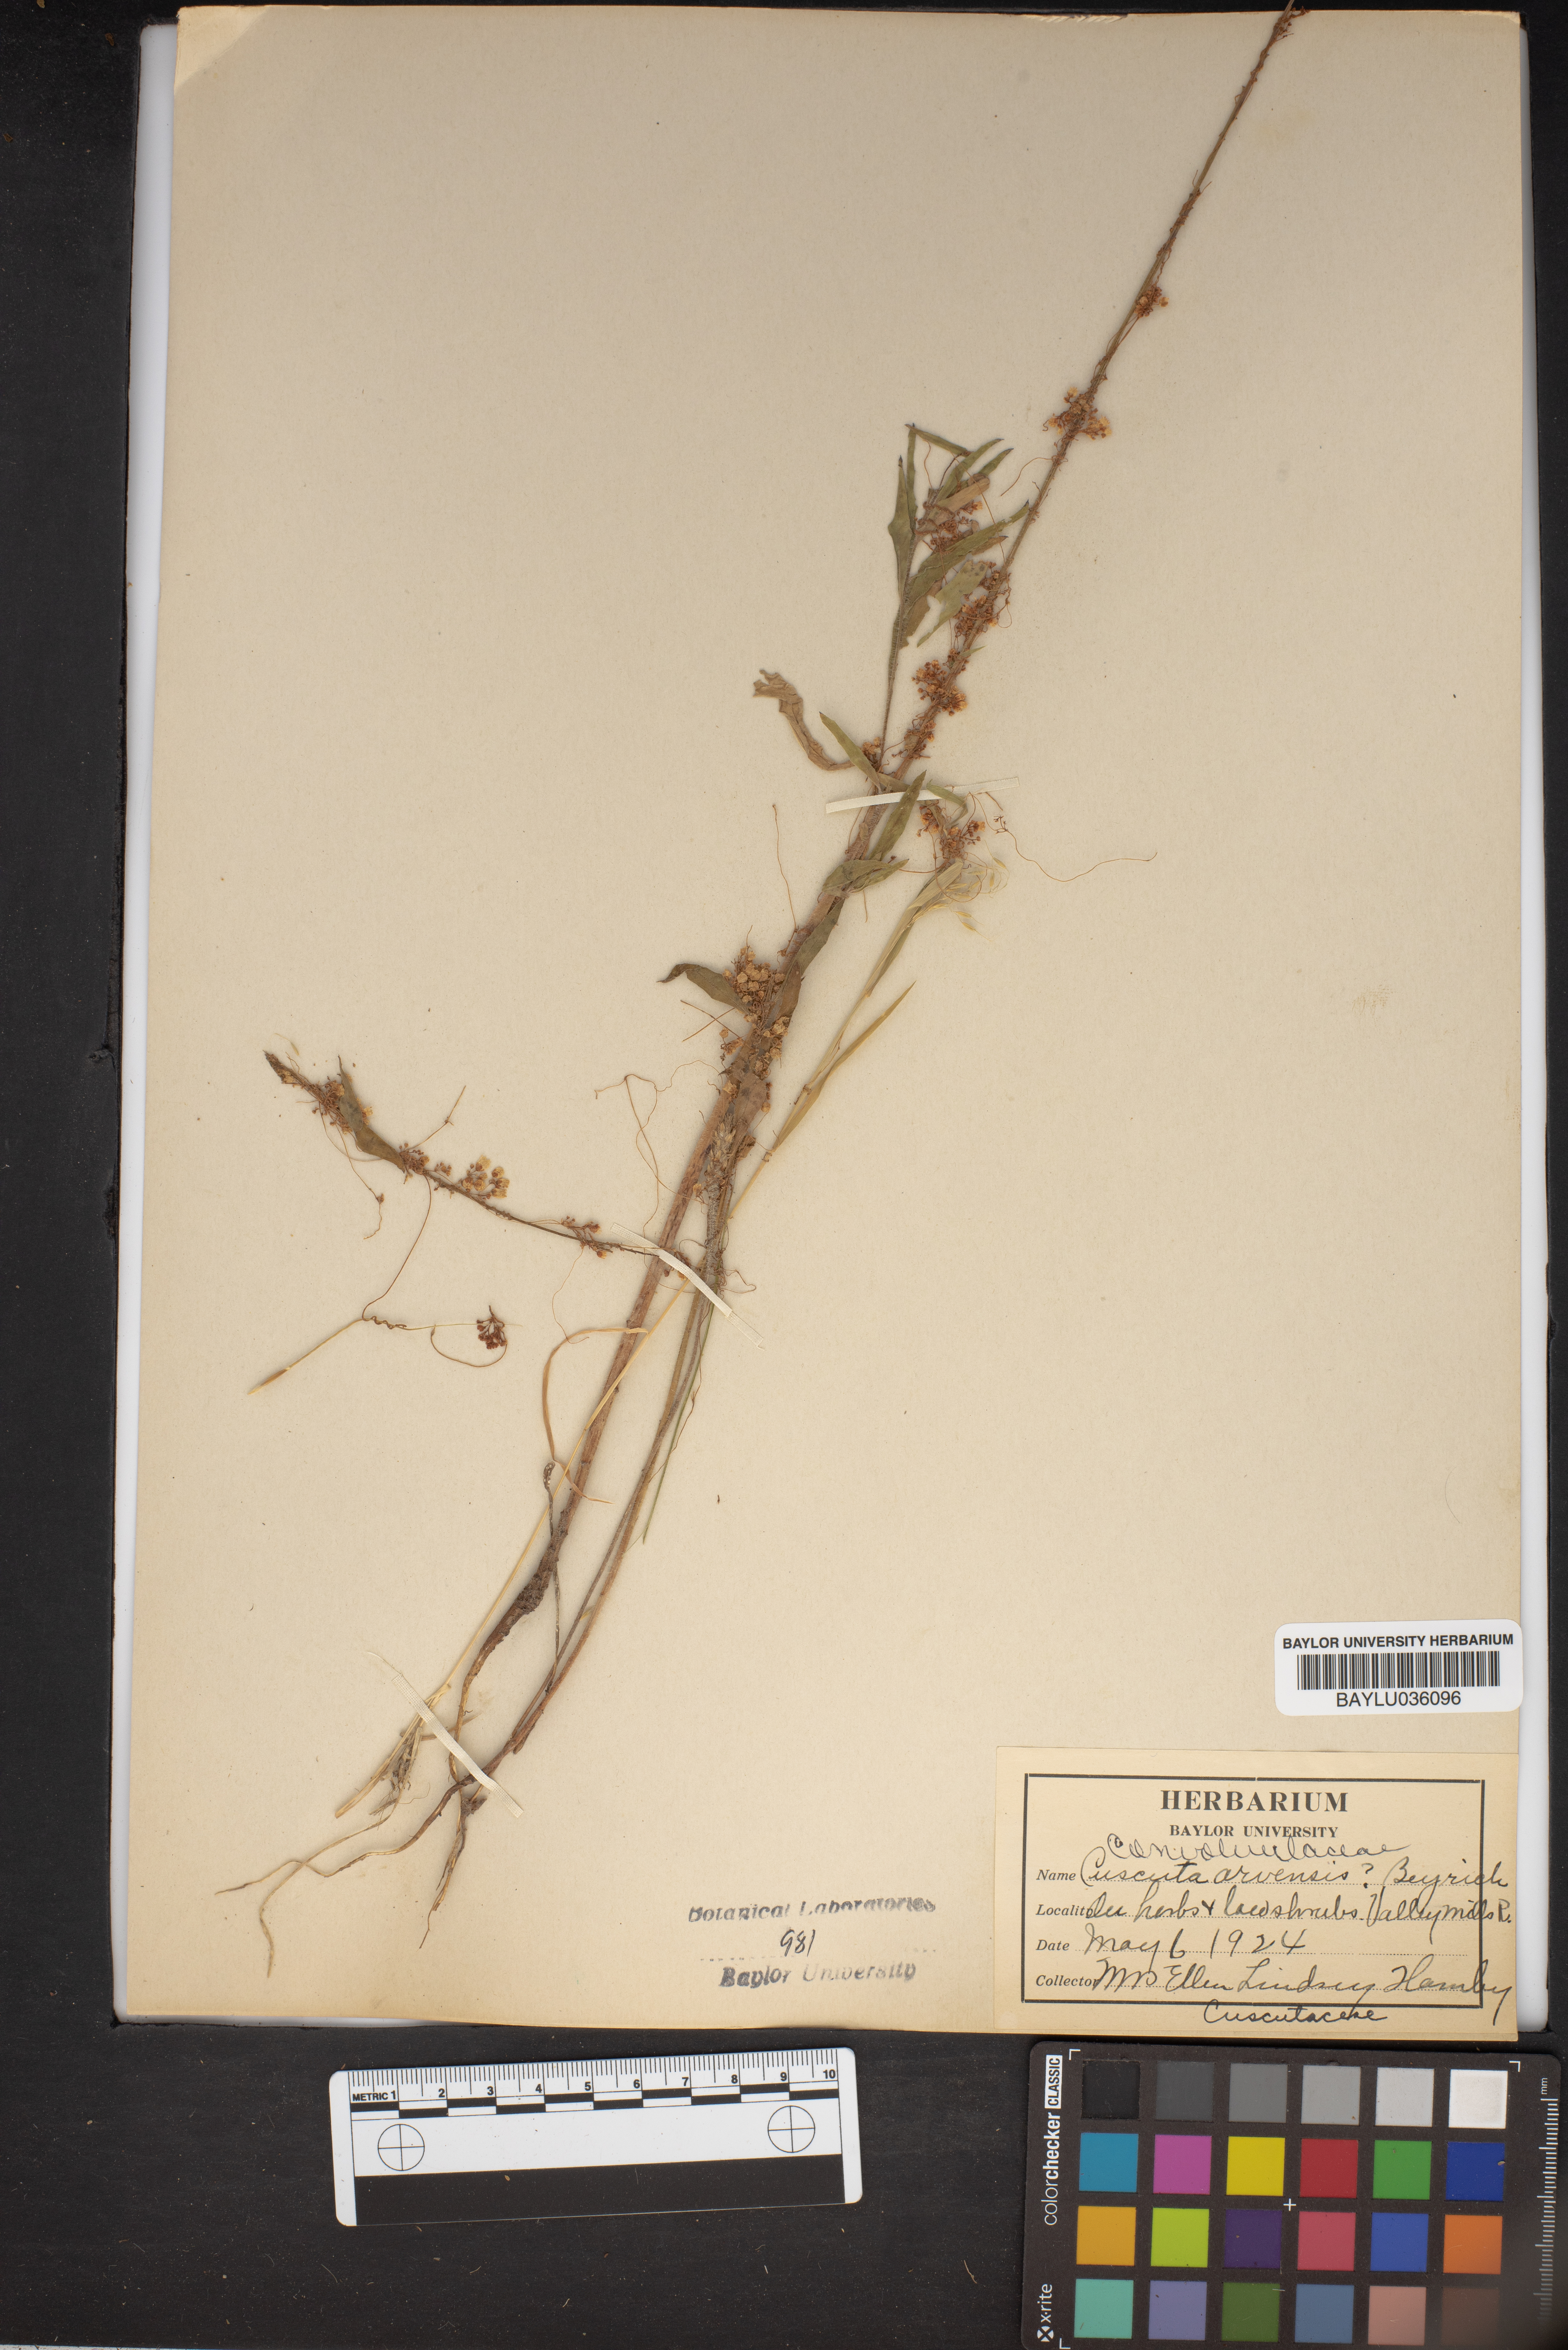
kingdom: Plantae
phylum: Tracheophyta
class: Magnoliopsida
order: Solanales
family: Convolvulaceae
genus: Cuscuta
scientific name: Cuscuta campestris
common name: Yellow dodder
